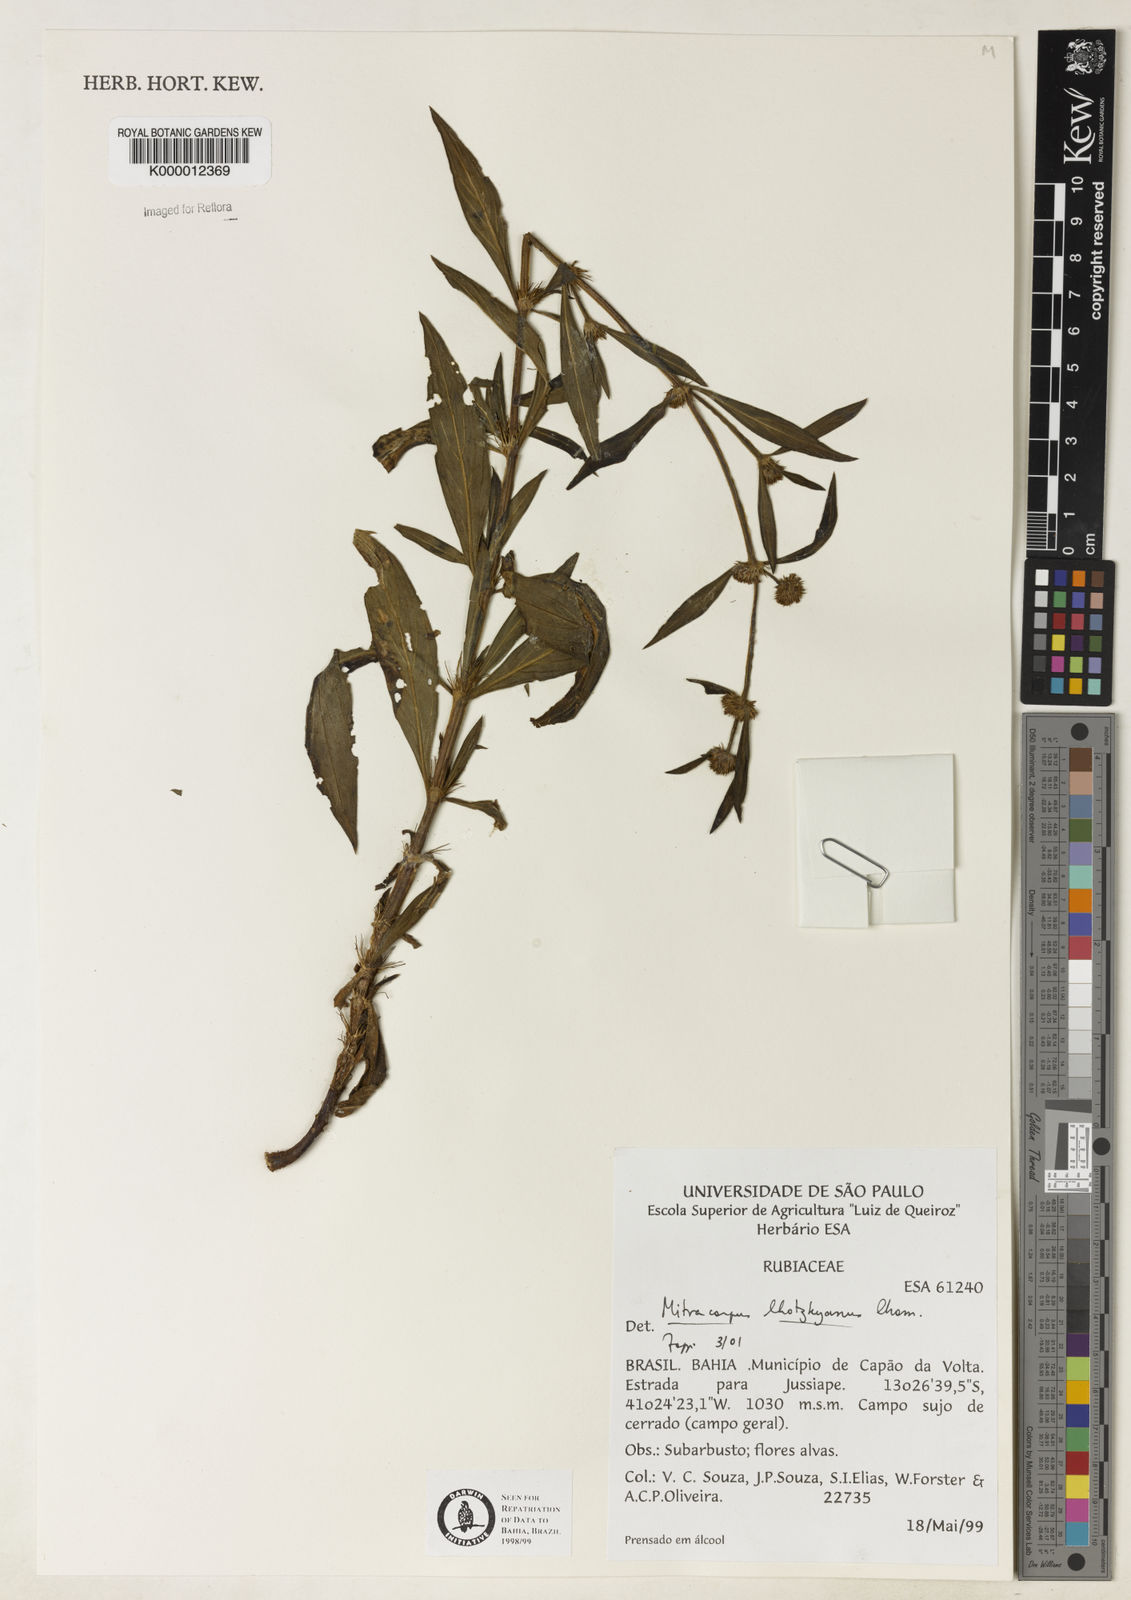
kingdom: Plantae
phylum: Tracheophyta
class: Magnoliopsida
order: Gentianales
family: Rubiaceae
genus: Mitracarpus
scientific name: Mitracarpus lhotzkyanus
